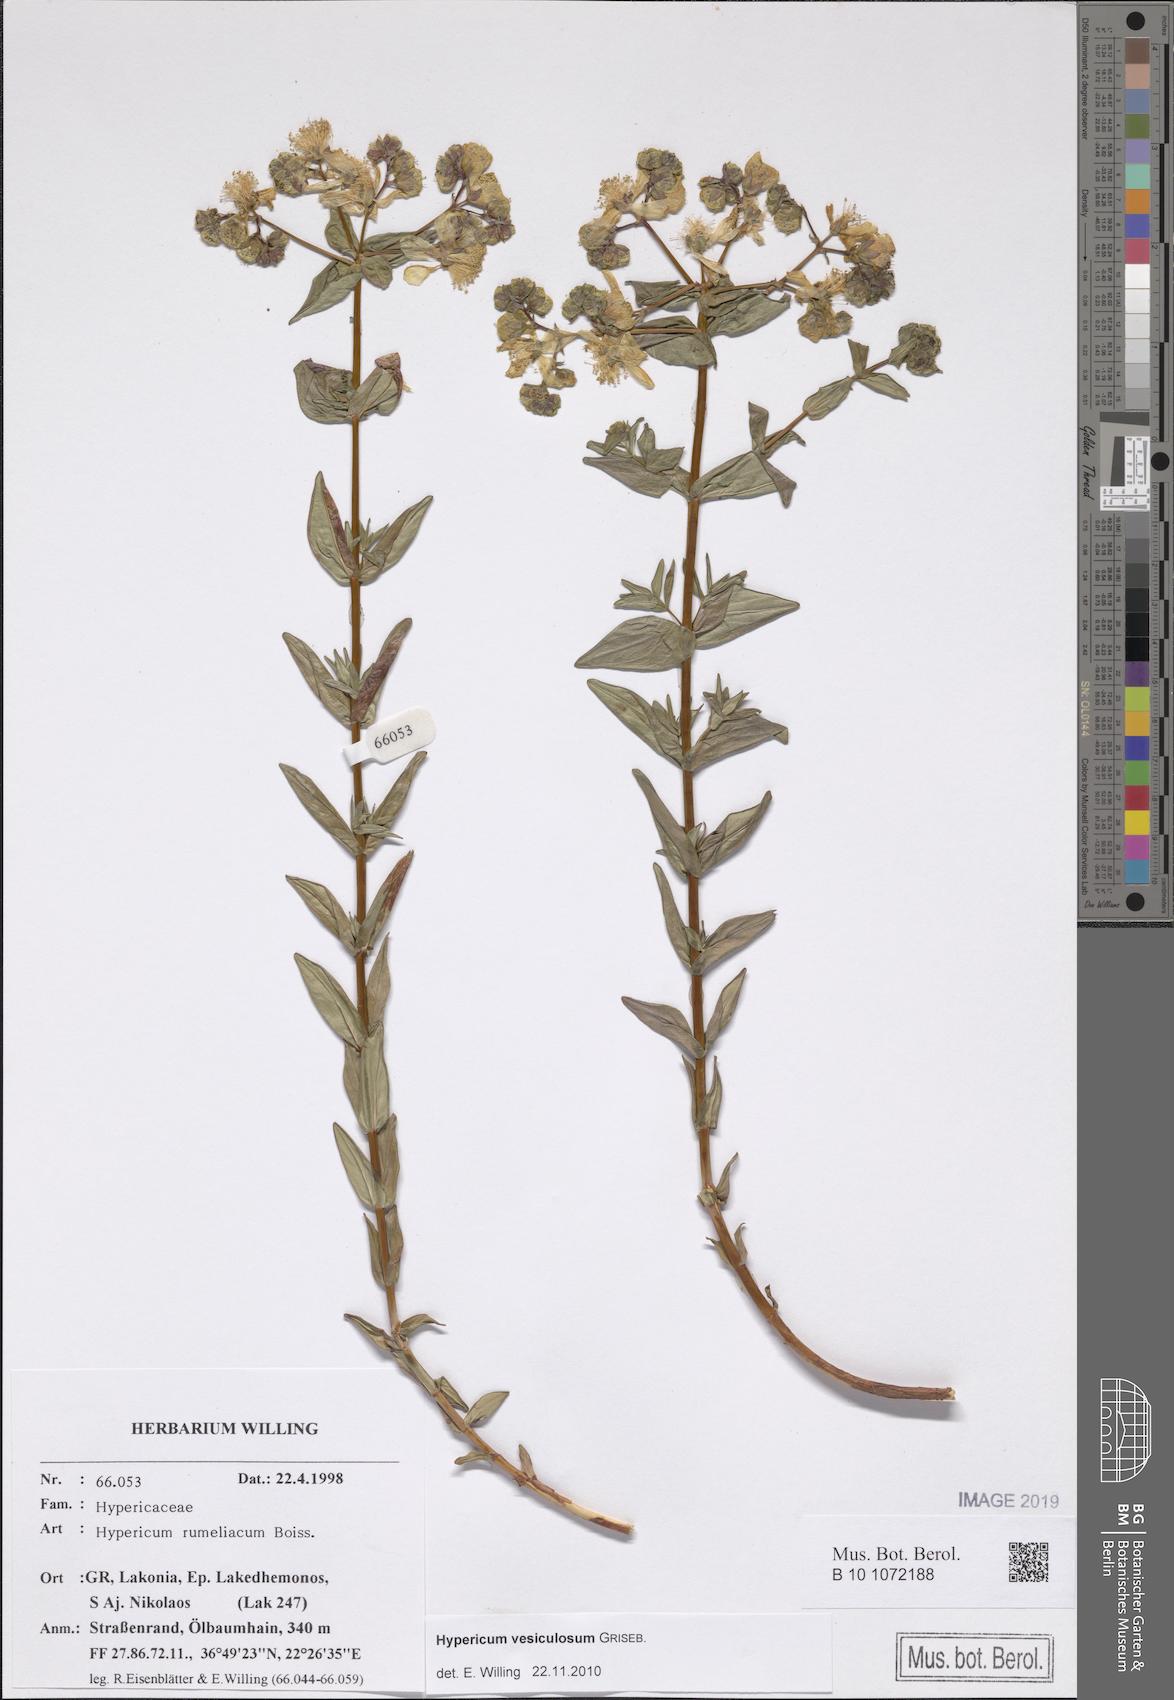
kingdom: Plantae
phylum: Tracheophyta
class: Magnoliopsida
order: Malpighiales
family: Hypericaceae
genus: Hypericum
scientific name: Hypericum perfoliatum
